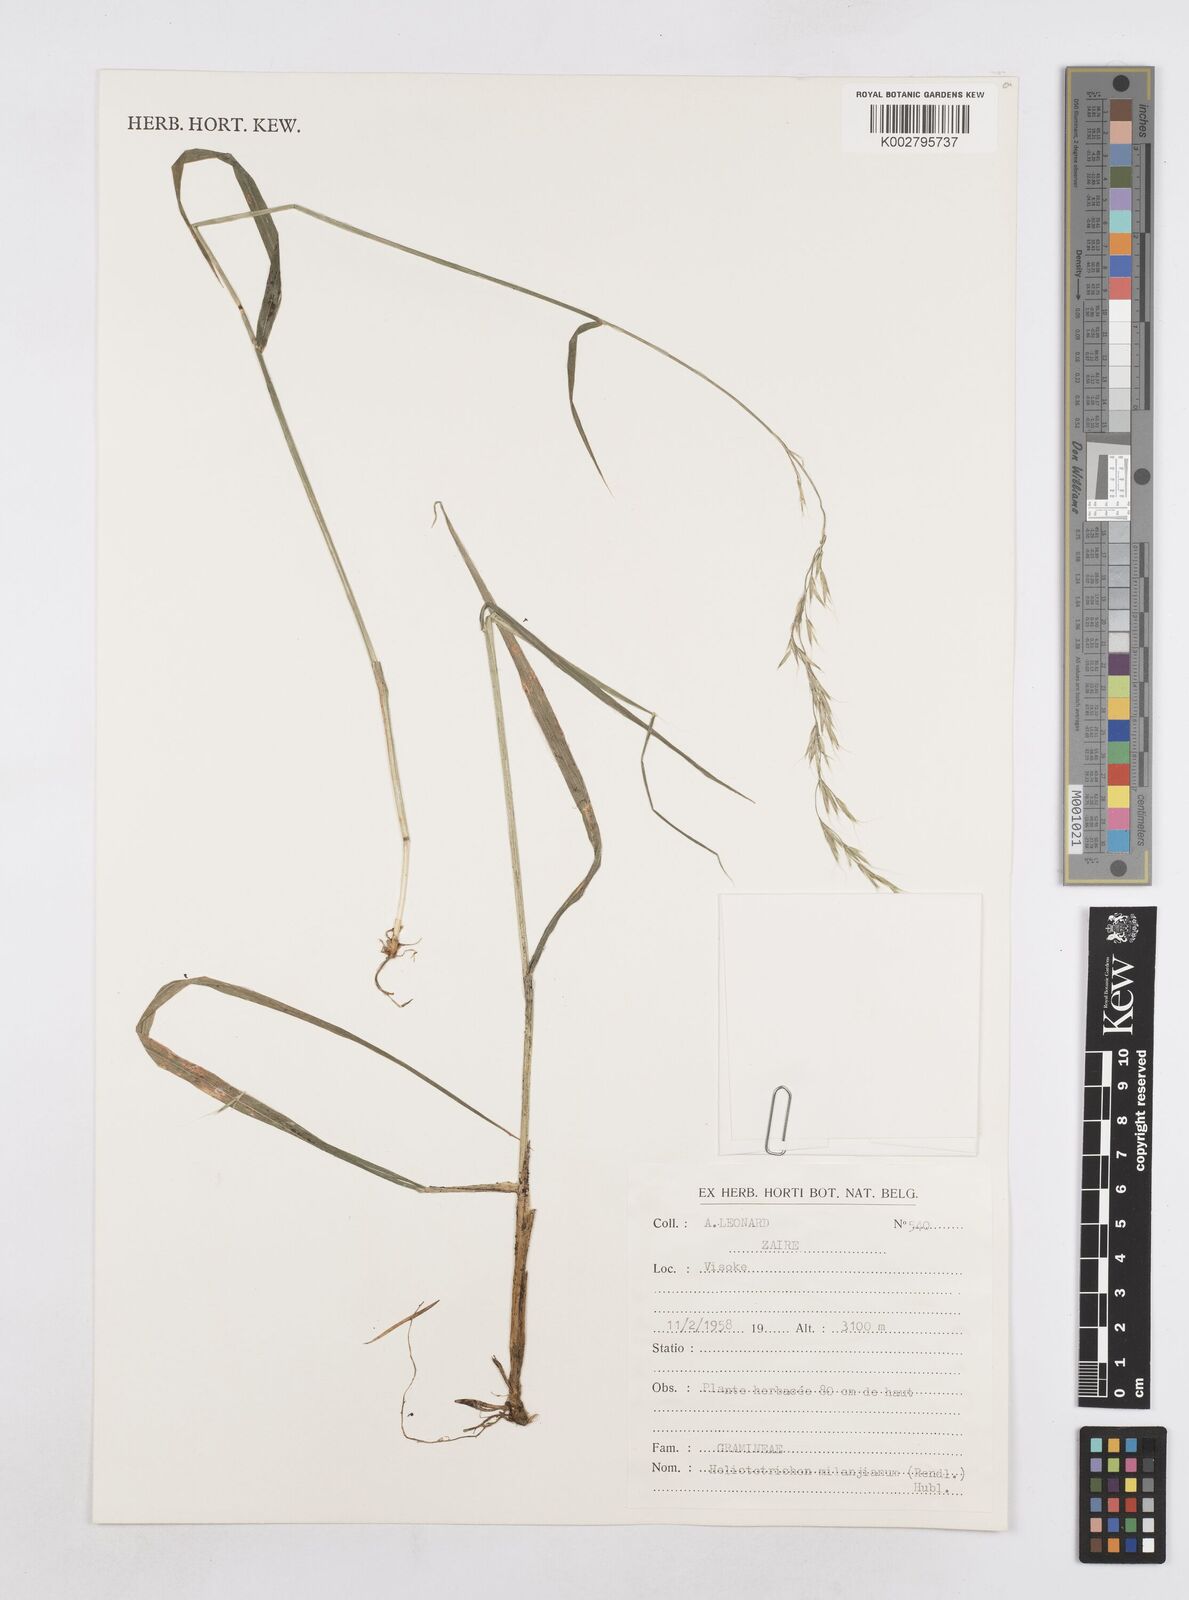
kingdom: Plantae
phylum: Tracheophyta
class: Liliopsida
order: Poales
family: Poaceae
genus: Trisetopsis
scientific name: Trisetopsis milanjiana
